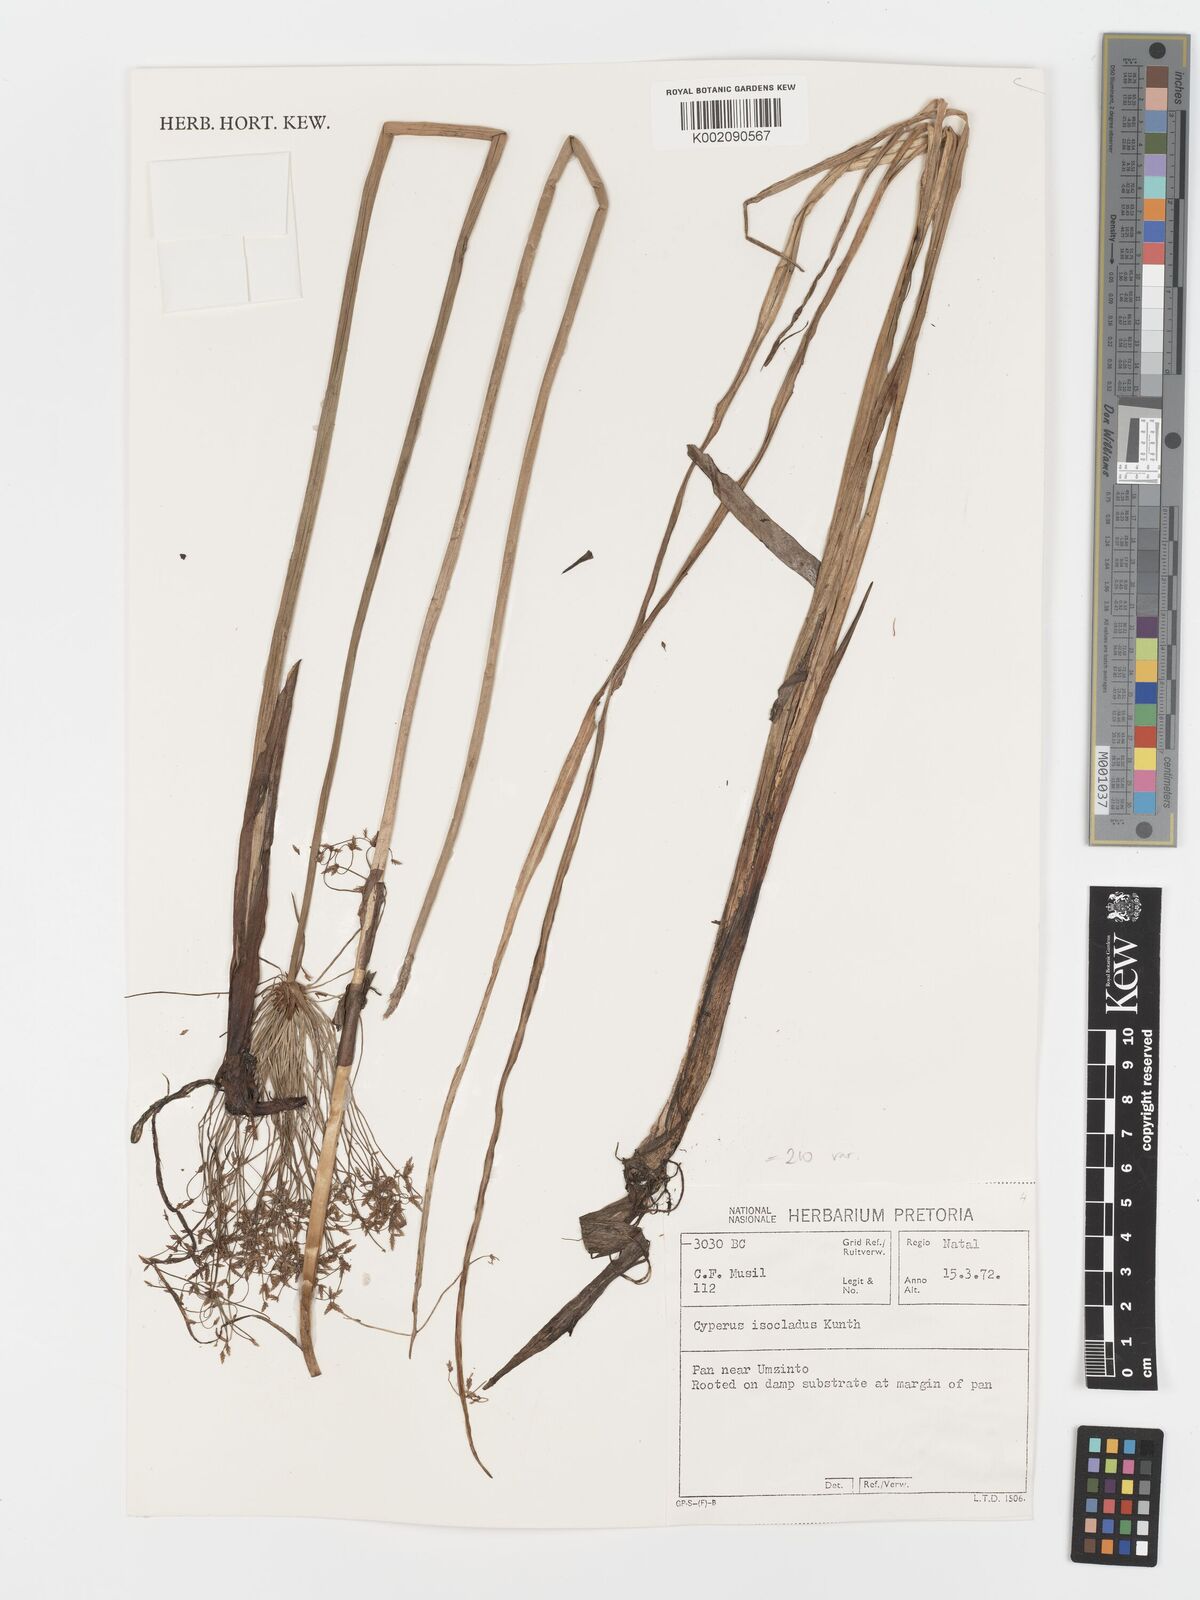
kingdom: Plantae
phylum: Tracheophyta
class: Liliopsida
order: Poales
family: Cyperaceae
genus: Cyperus
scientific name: Cyperus prolifer
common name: Miniature flatsedge
